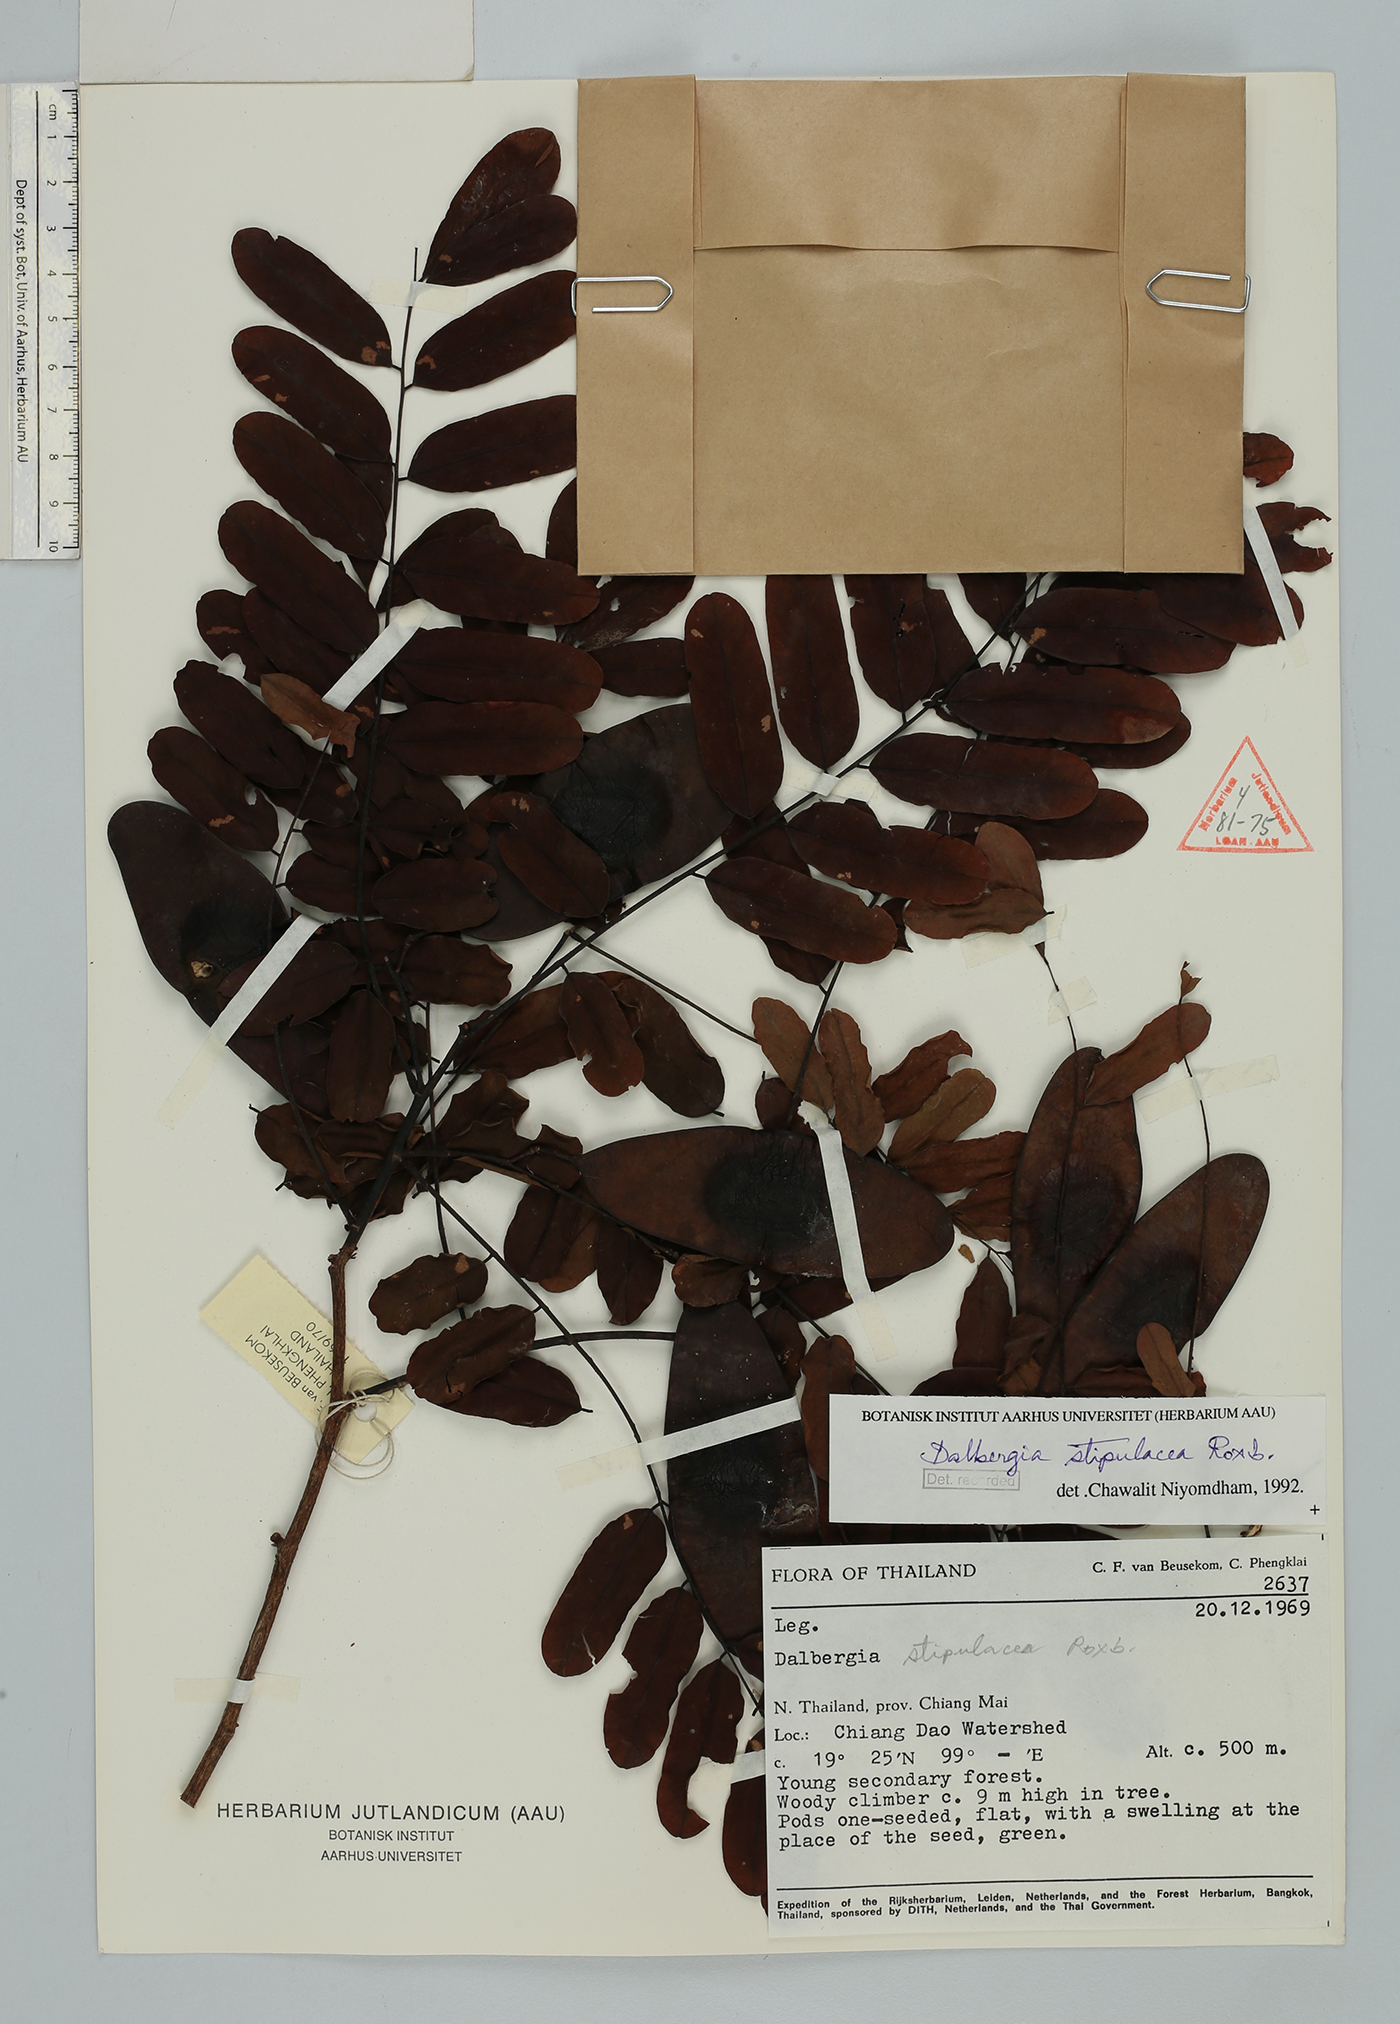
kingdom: Plantae
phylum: Tracheophyta
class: Magnoliopsida
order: Fabales
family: Fabaceae
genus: Dalbergia
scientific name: Dalbergia stipulacea
